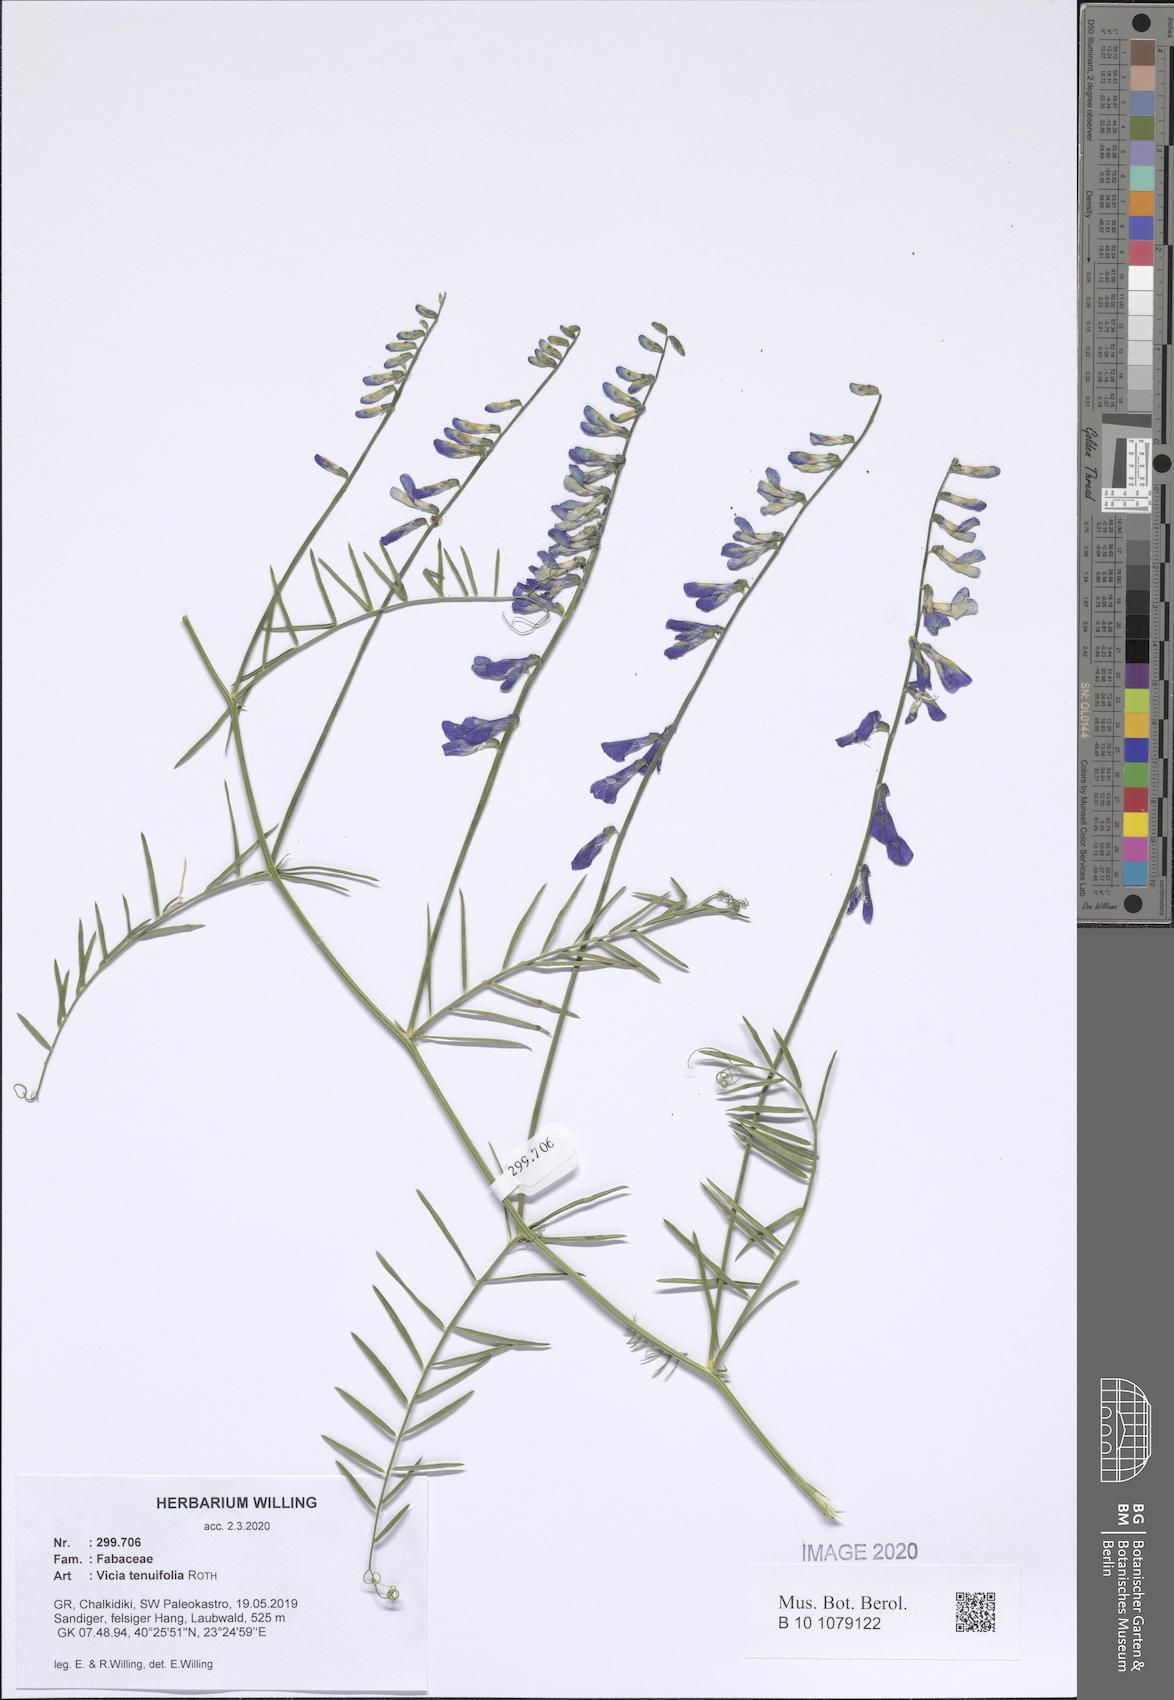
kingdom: Plantae
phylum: Tracheophyta
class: Magnoliopsida
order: Fabales
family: Fabaceae
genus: Vicia
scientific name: Vicia tenuifolia
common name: Fine-leaved vetch
